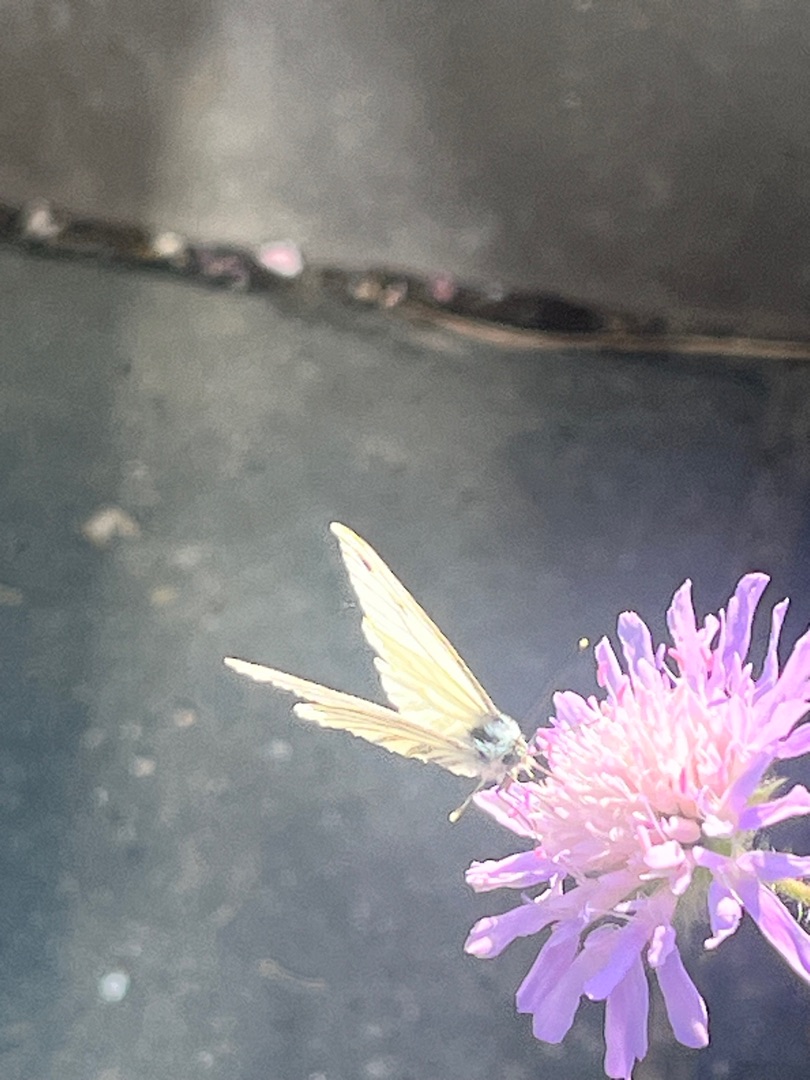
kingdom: Animalia
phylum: Arthropoda
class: Insecta
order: Lepidoptera
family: Pieridae
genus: Pieris
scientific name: Pieris napi
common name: Grønåret kålsommerfugl
